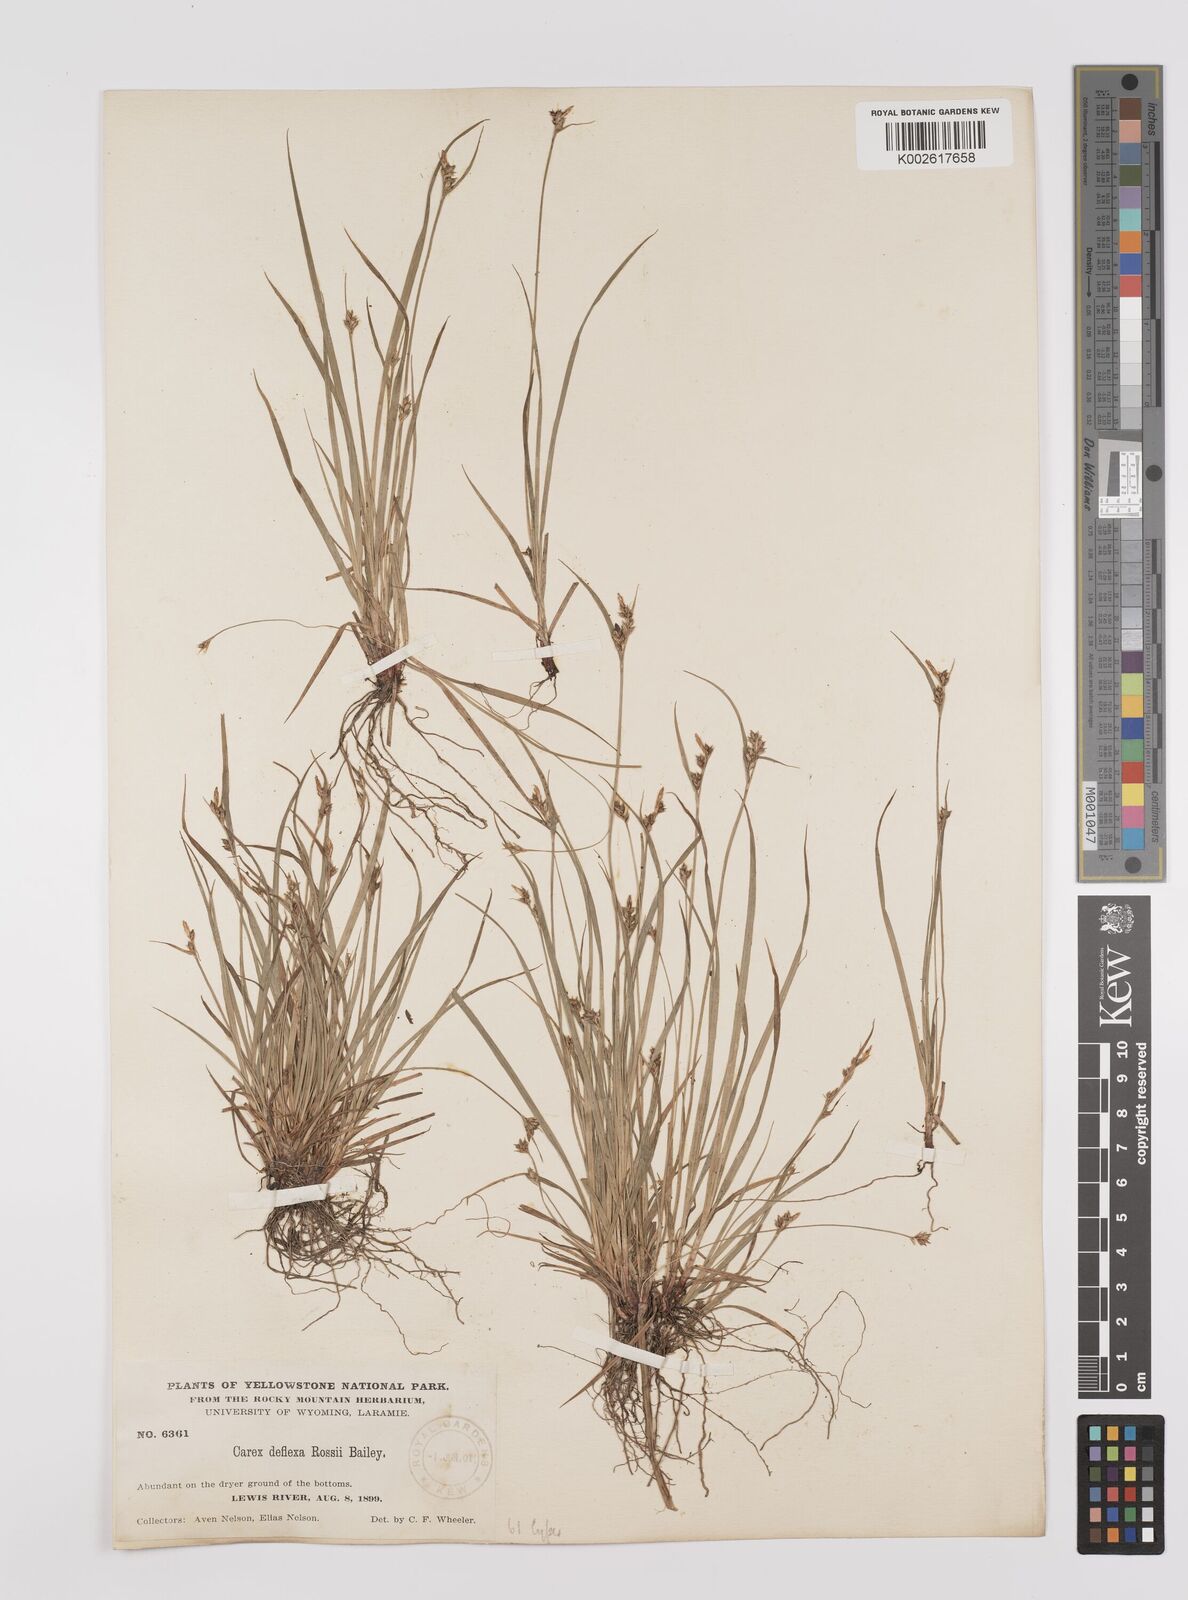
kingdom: Plantae
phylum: Tracheophyta
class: Liliopsida
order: Poales
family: Cyperaceae
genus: Carex
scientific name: Carex rossii
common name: Ross' sedge
